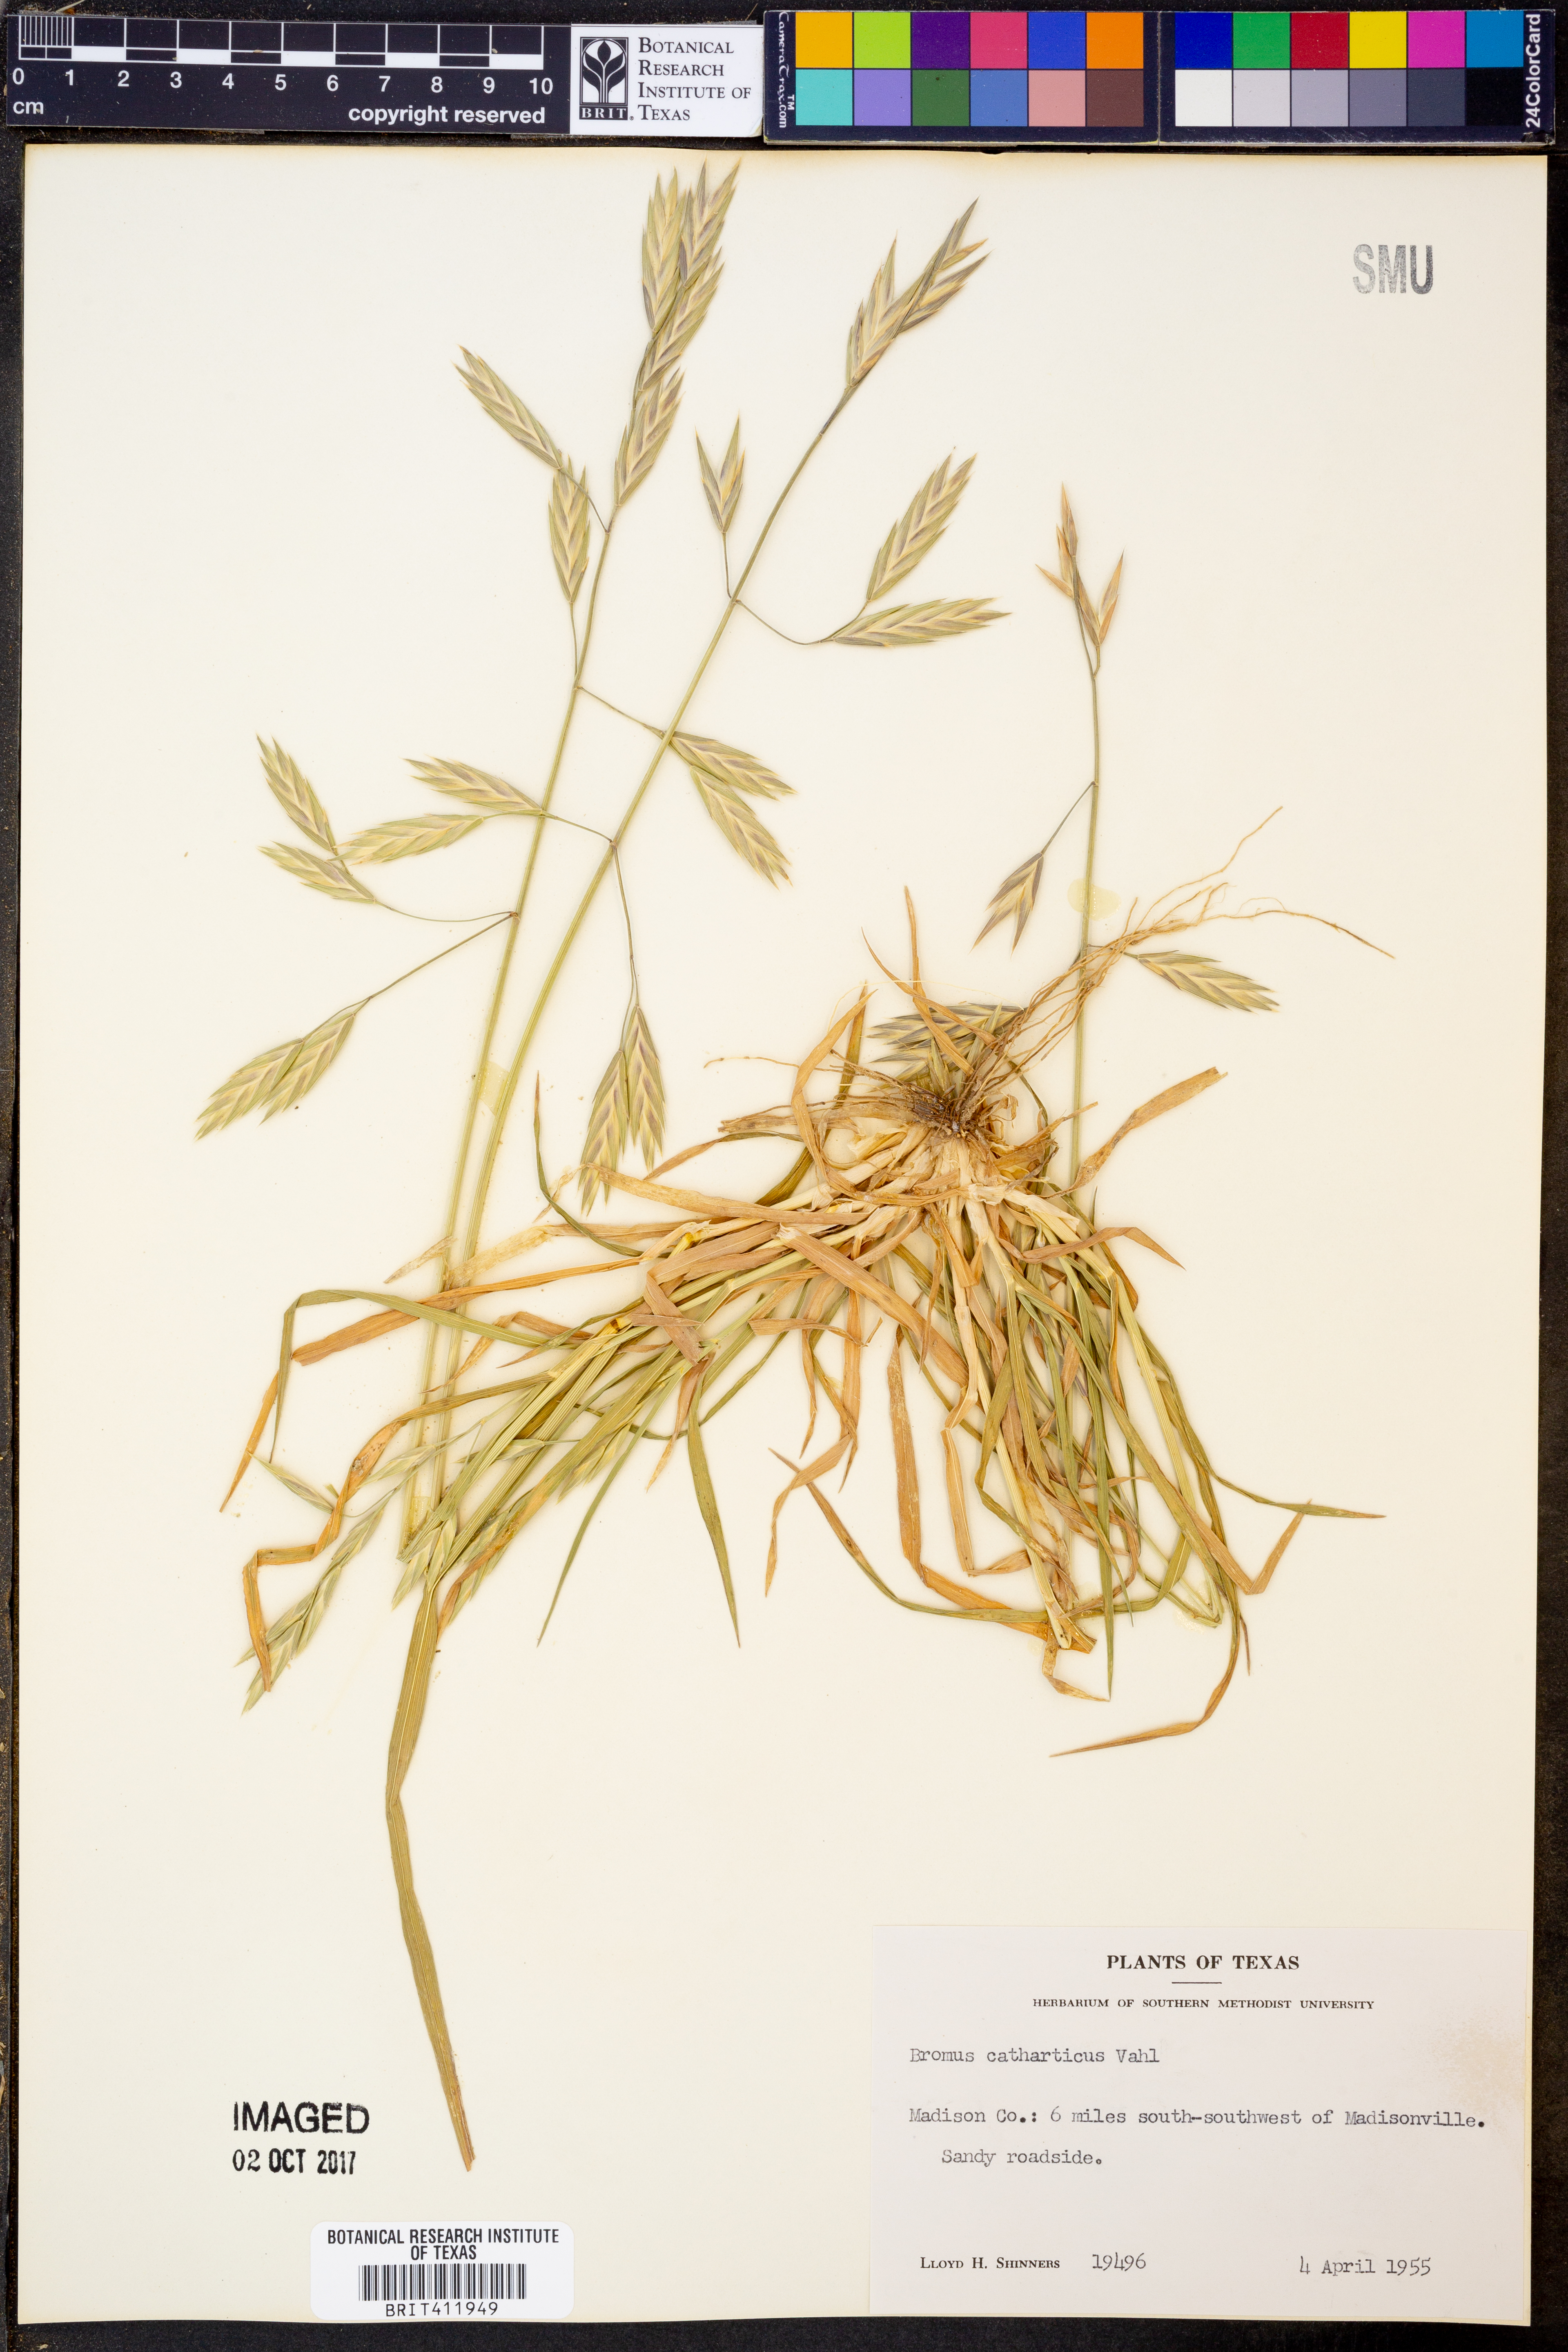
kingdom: Plantae
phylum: Tracheophyta
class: Liliopsida
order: Poales
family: Poaceae
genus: Bromus
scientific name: Bromus catharticus
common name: Rescuegrass
